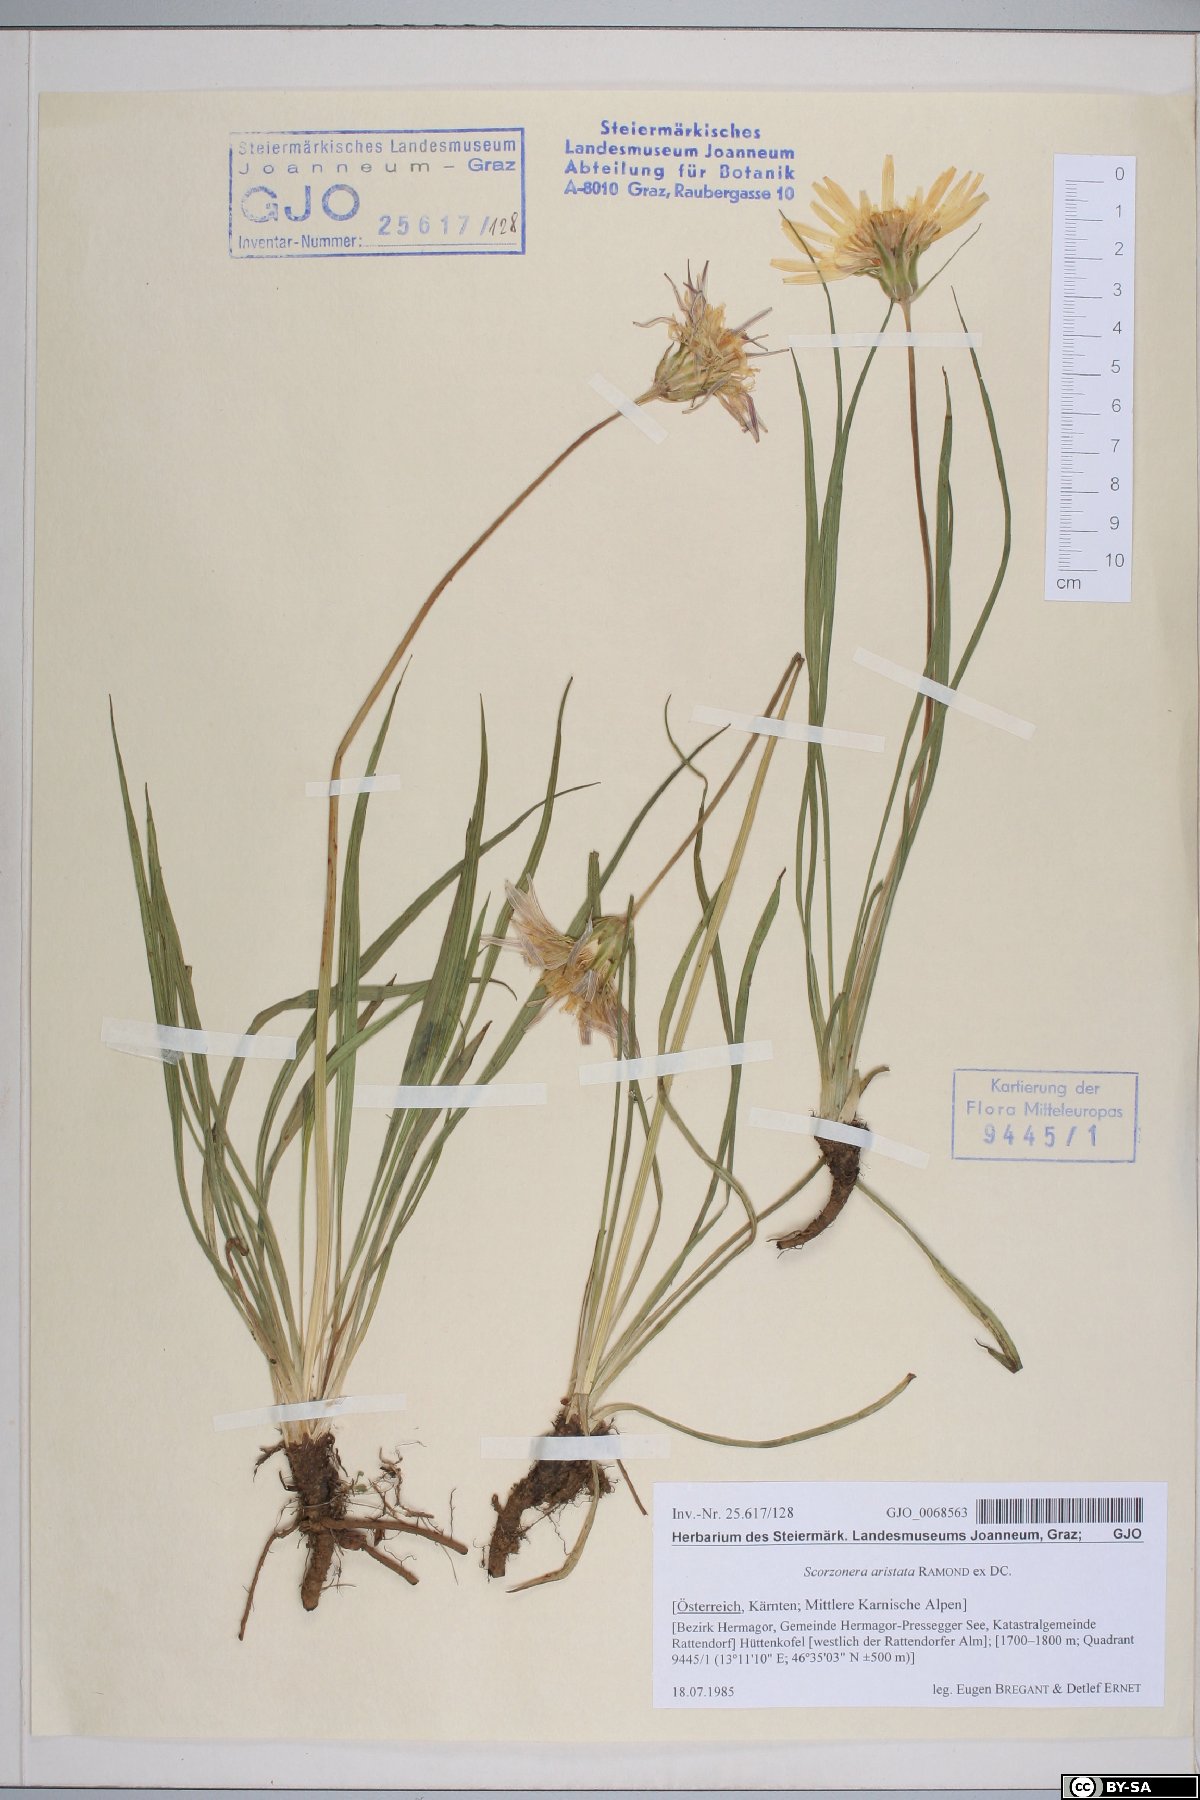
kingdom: Plantae
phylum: Tracheophyta
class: Magnoliopsida
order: Asterales
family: Asteraceae
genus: Scorzonera
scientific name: Scorzonera aristata
